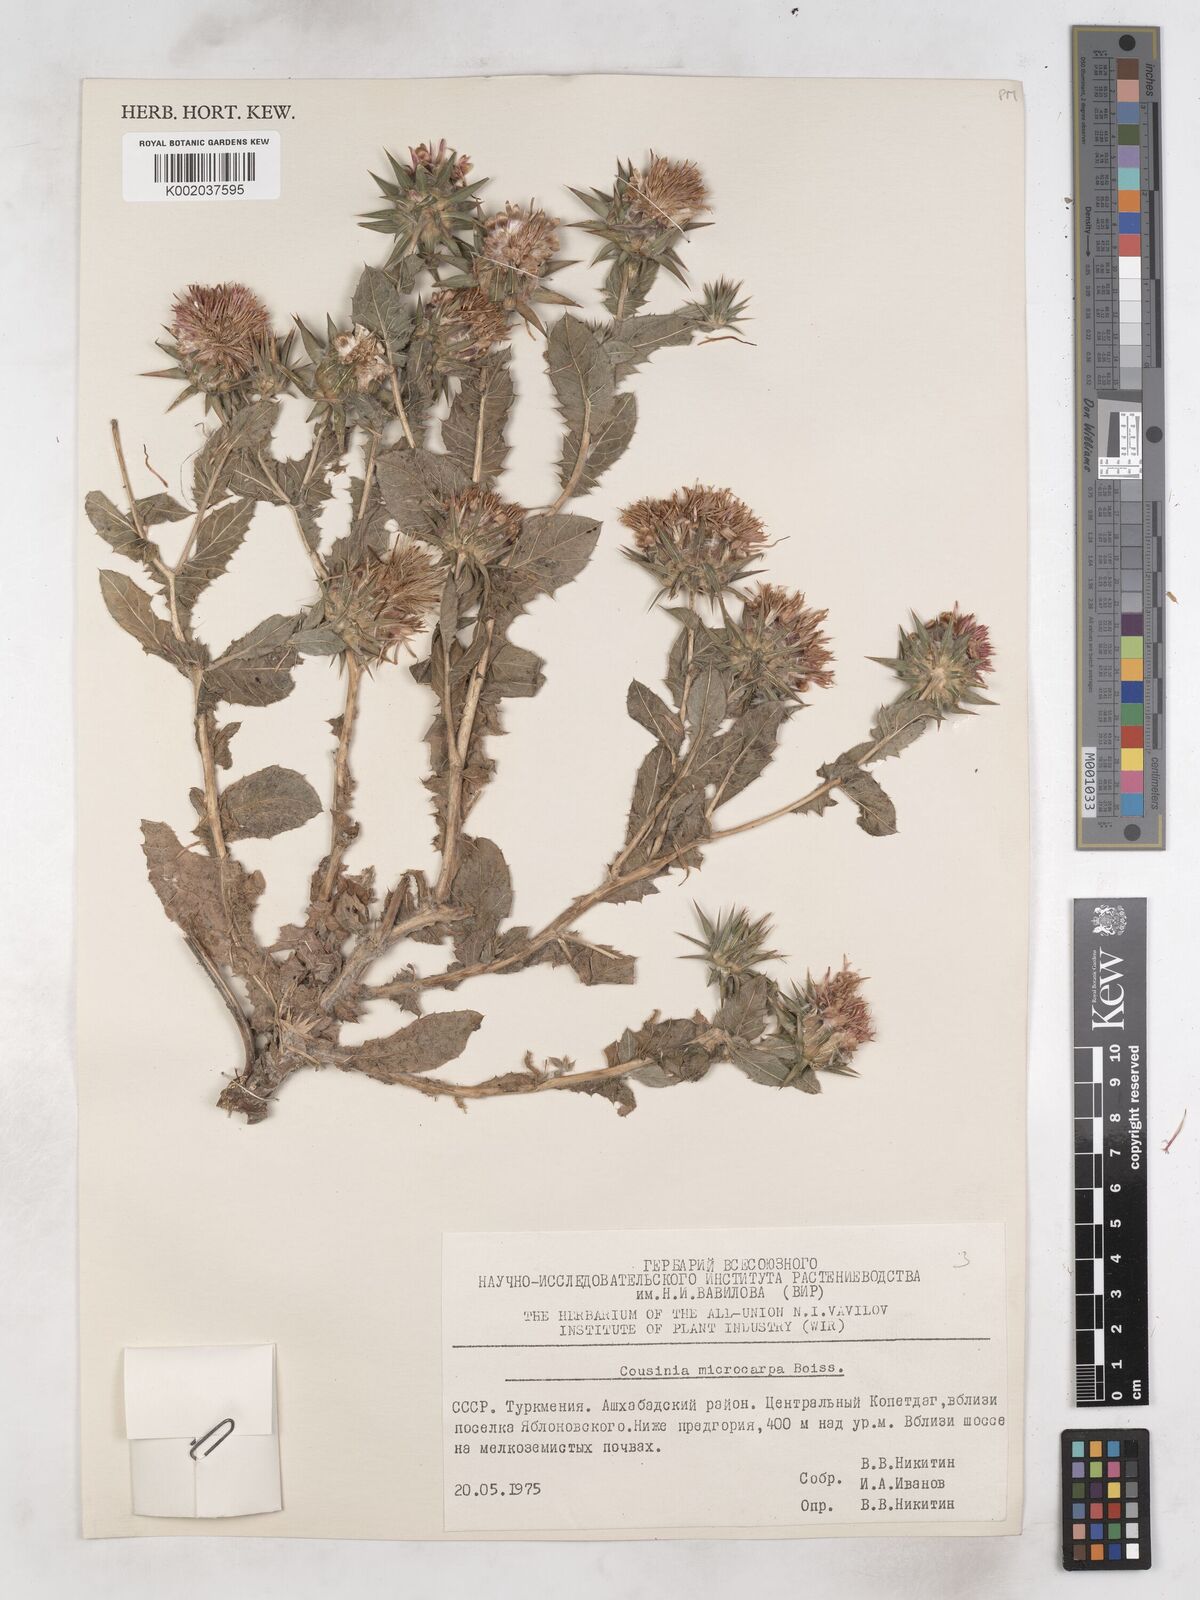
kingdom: Plantae
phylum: Tracheophyta
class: Magnoliopsida
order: Asterales
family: Asteraceae
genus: Cousinia
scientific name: Cousinia microcarpa
